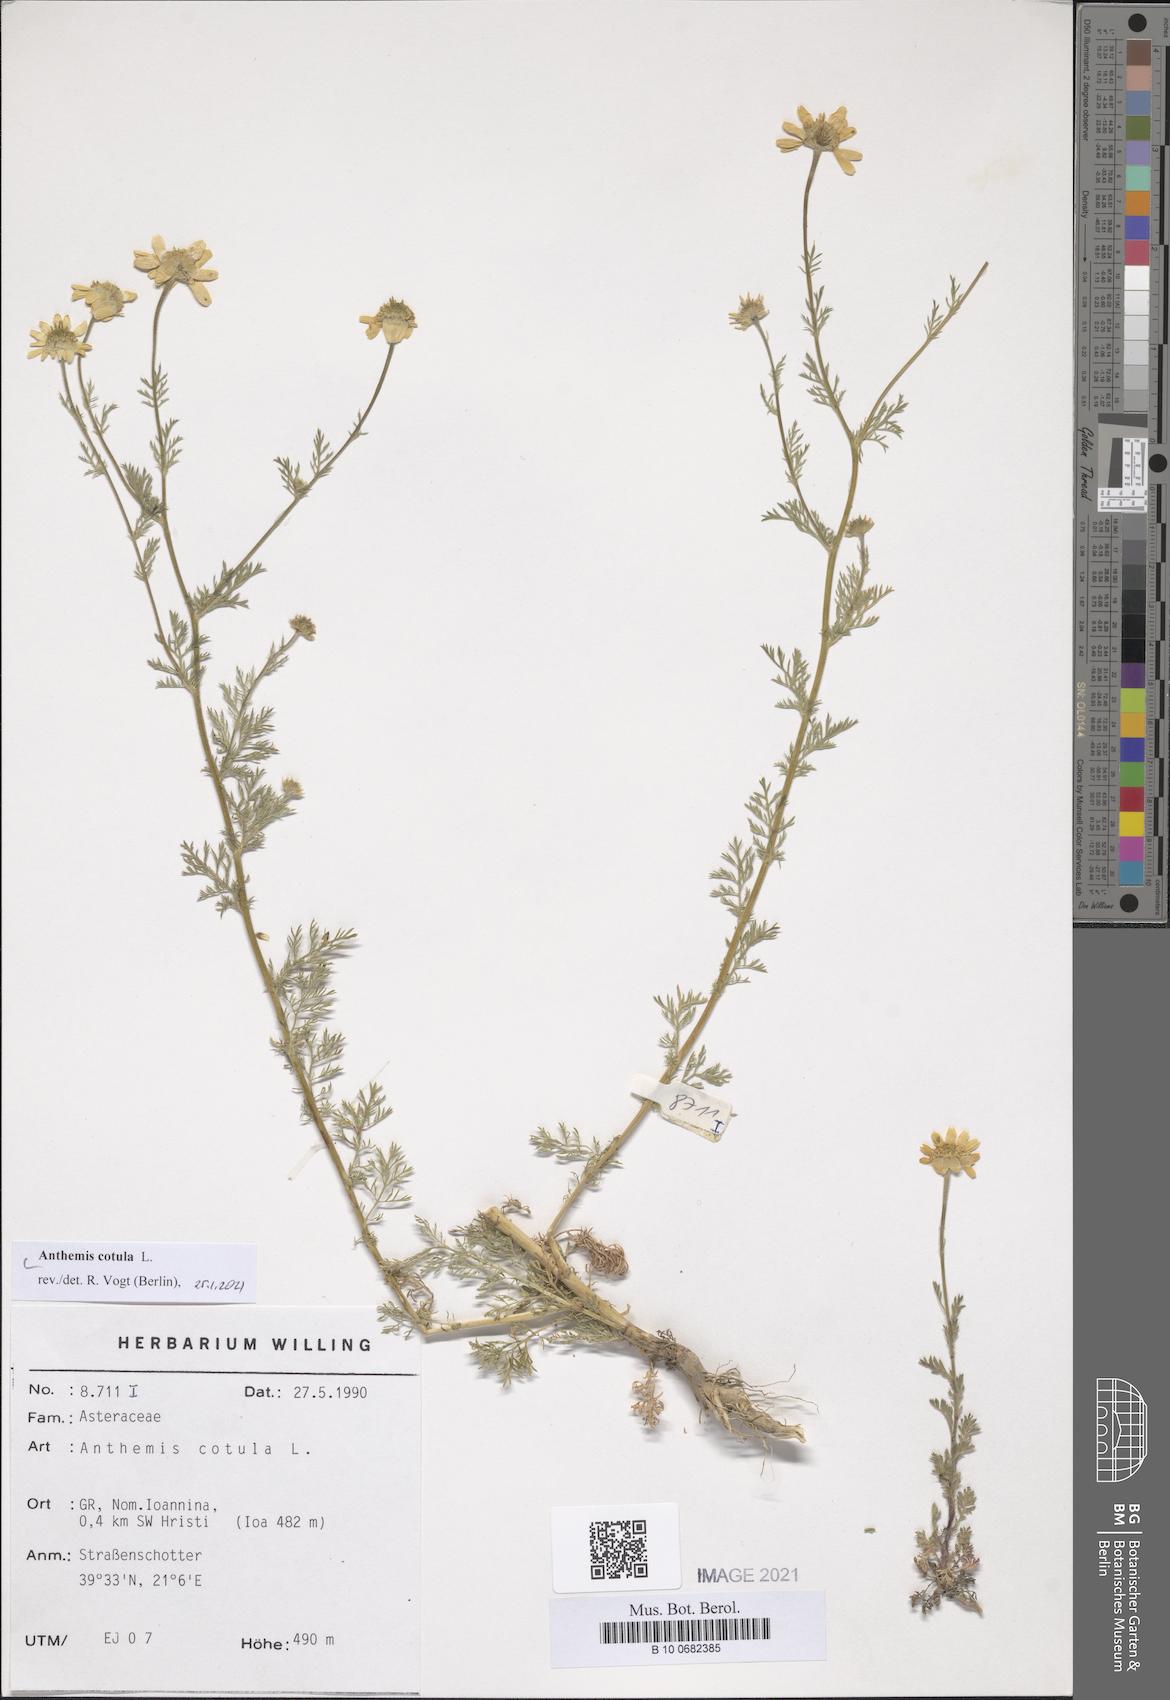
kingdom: Plantae
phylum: Tracheophyta
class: Magnoliopsida
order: Asterales
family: Asteraceae
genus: Anthemis
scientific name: Anthemis cotula
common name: Stinking chamomile
